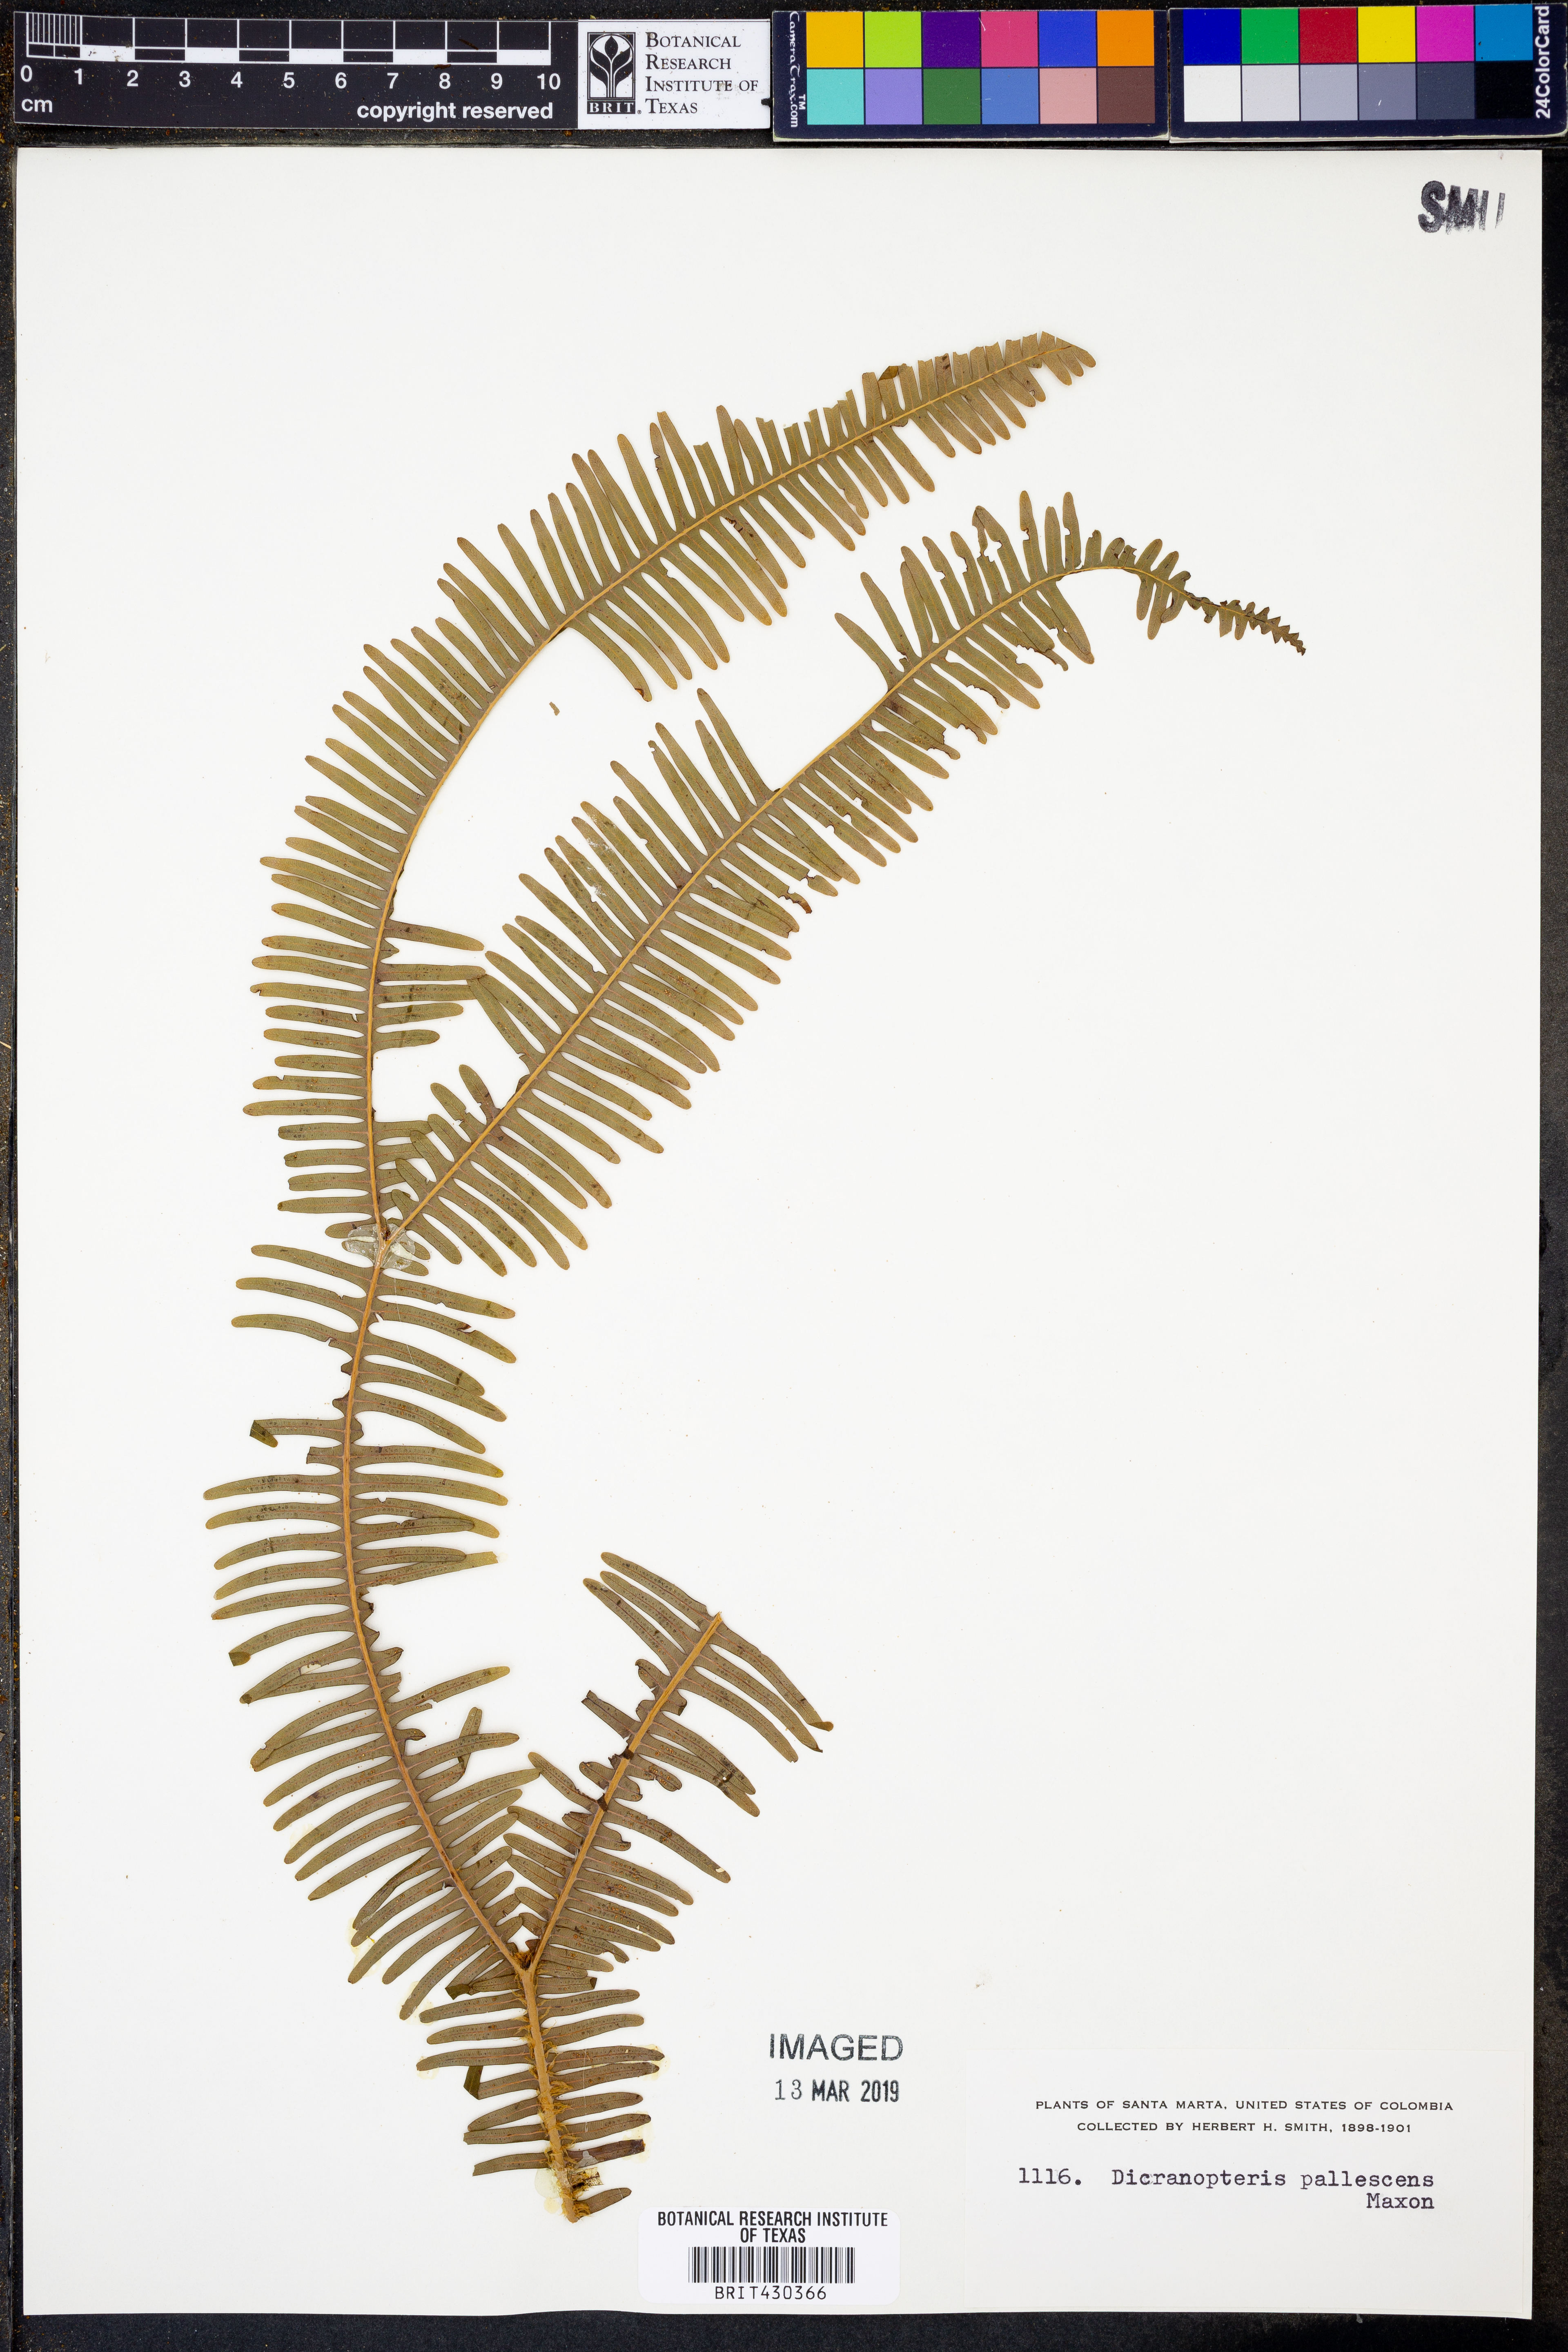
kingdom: Plantae
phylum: Tracheophyta
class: Polypodiopsida
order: Gleicheniales
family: Gleicheniaceae
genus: Sticherus
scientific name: Sticherus pallescens
